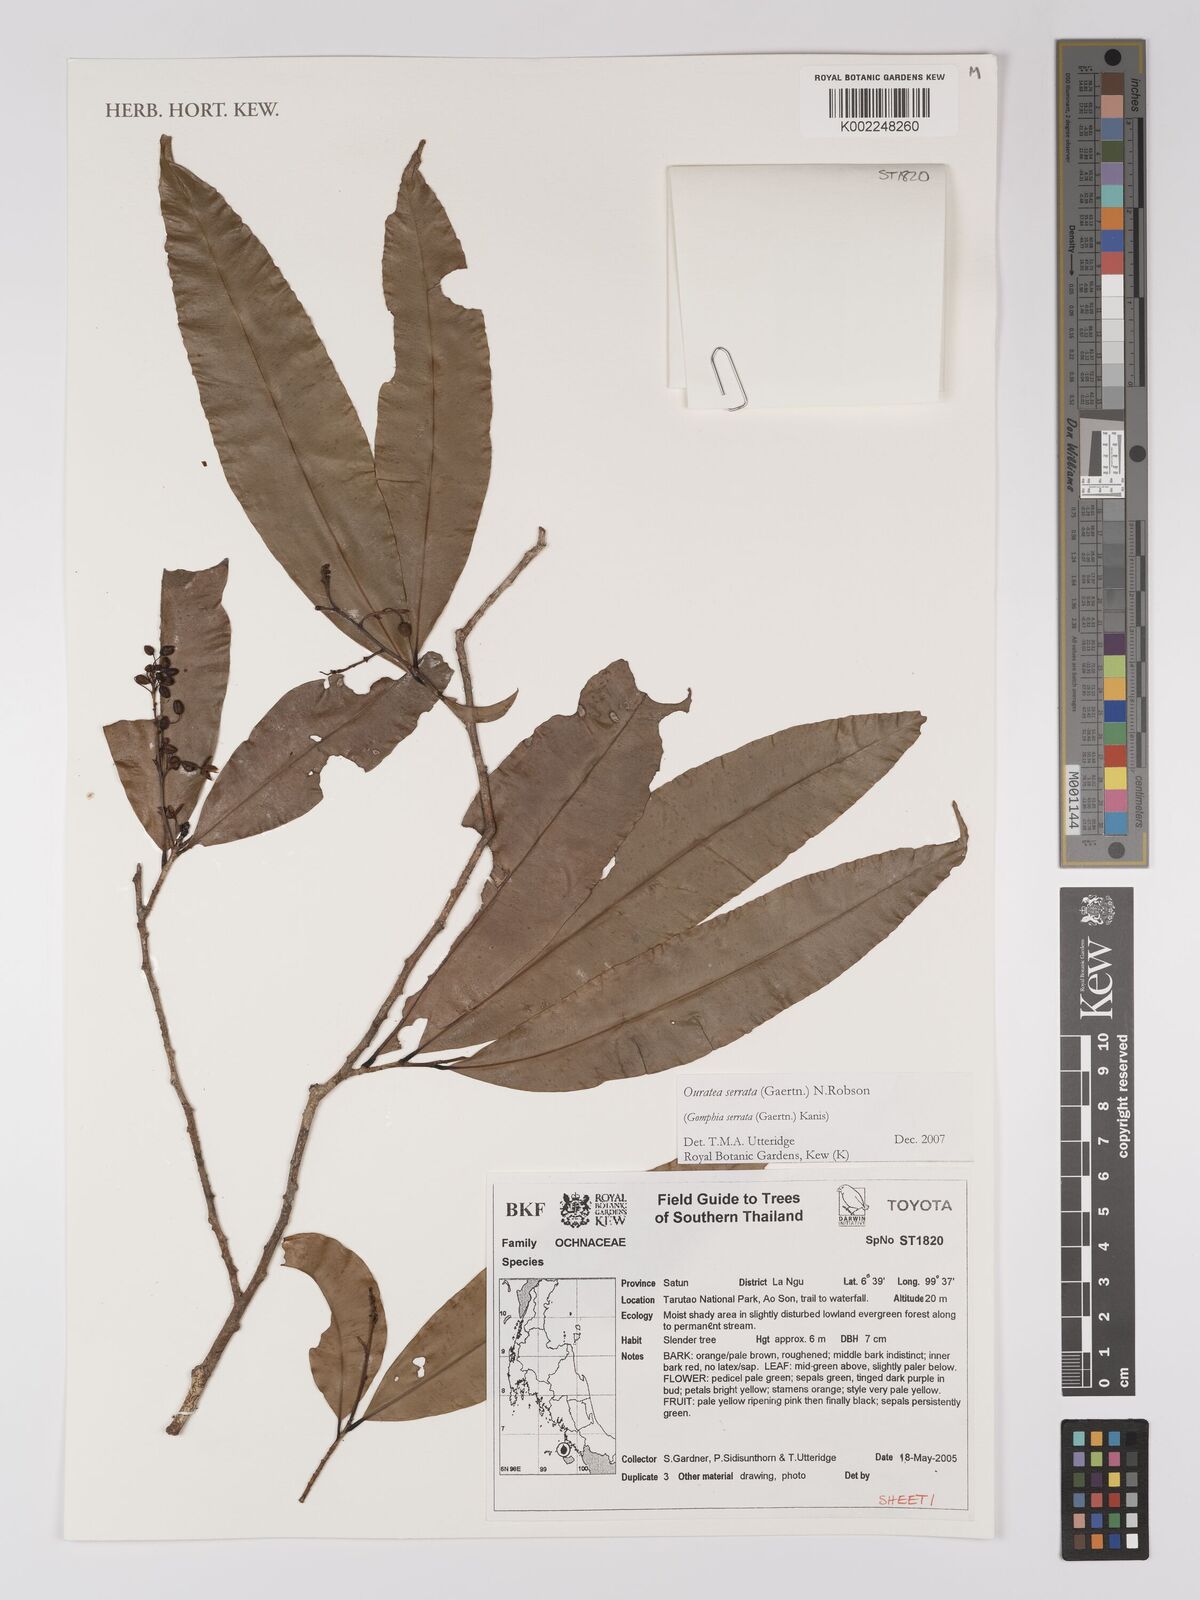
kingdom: Plantae
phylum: Tracheophyta
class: Magnoliopsida
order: Malpighiales
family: Ochnaceae
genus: Gomphia
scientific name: Gomphia serrata
